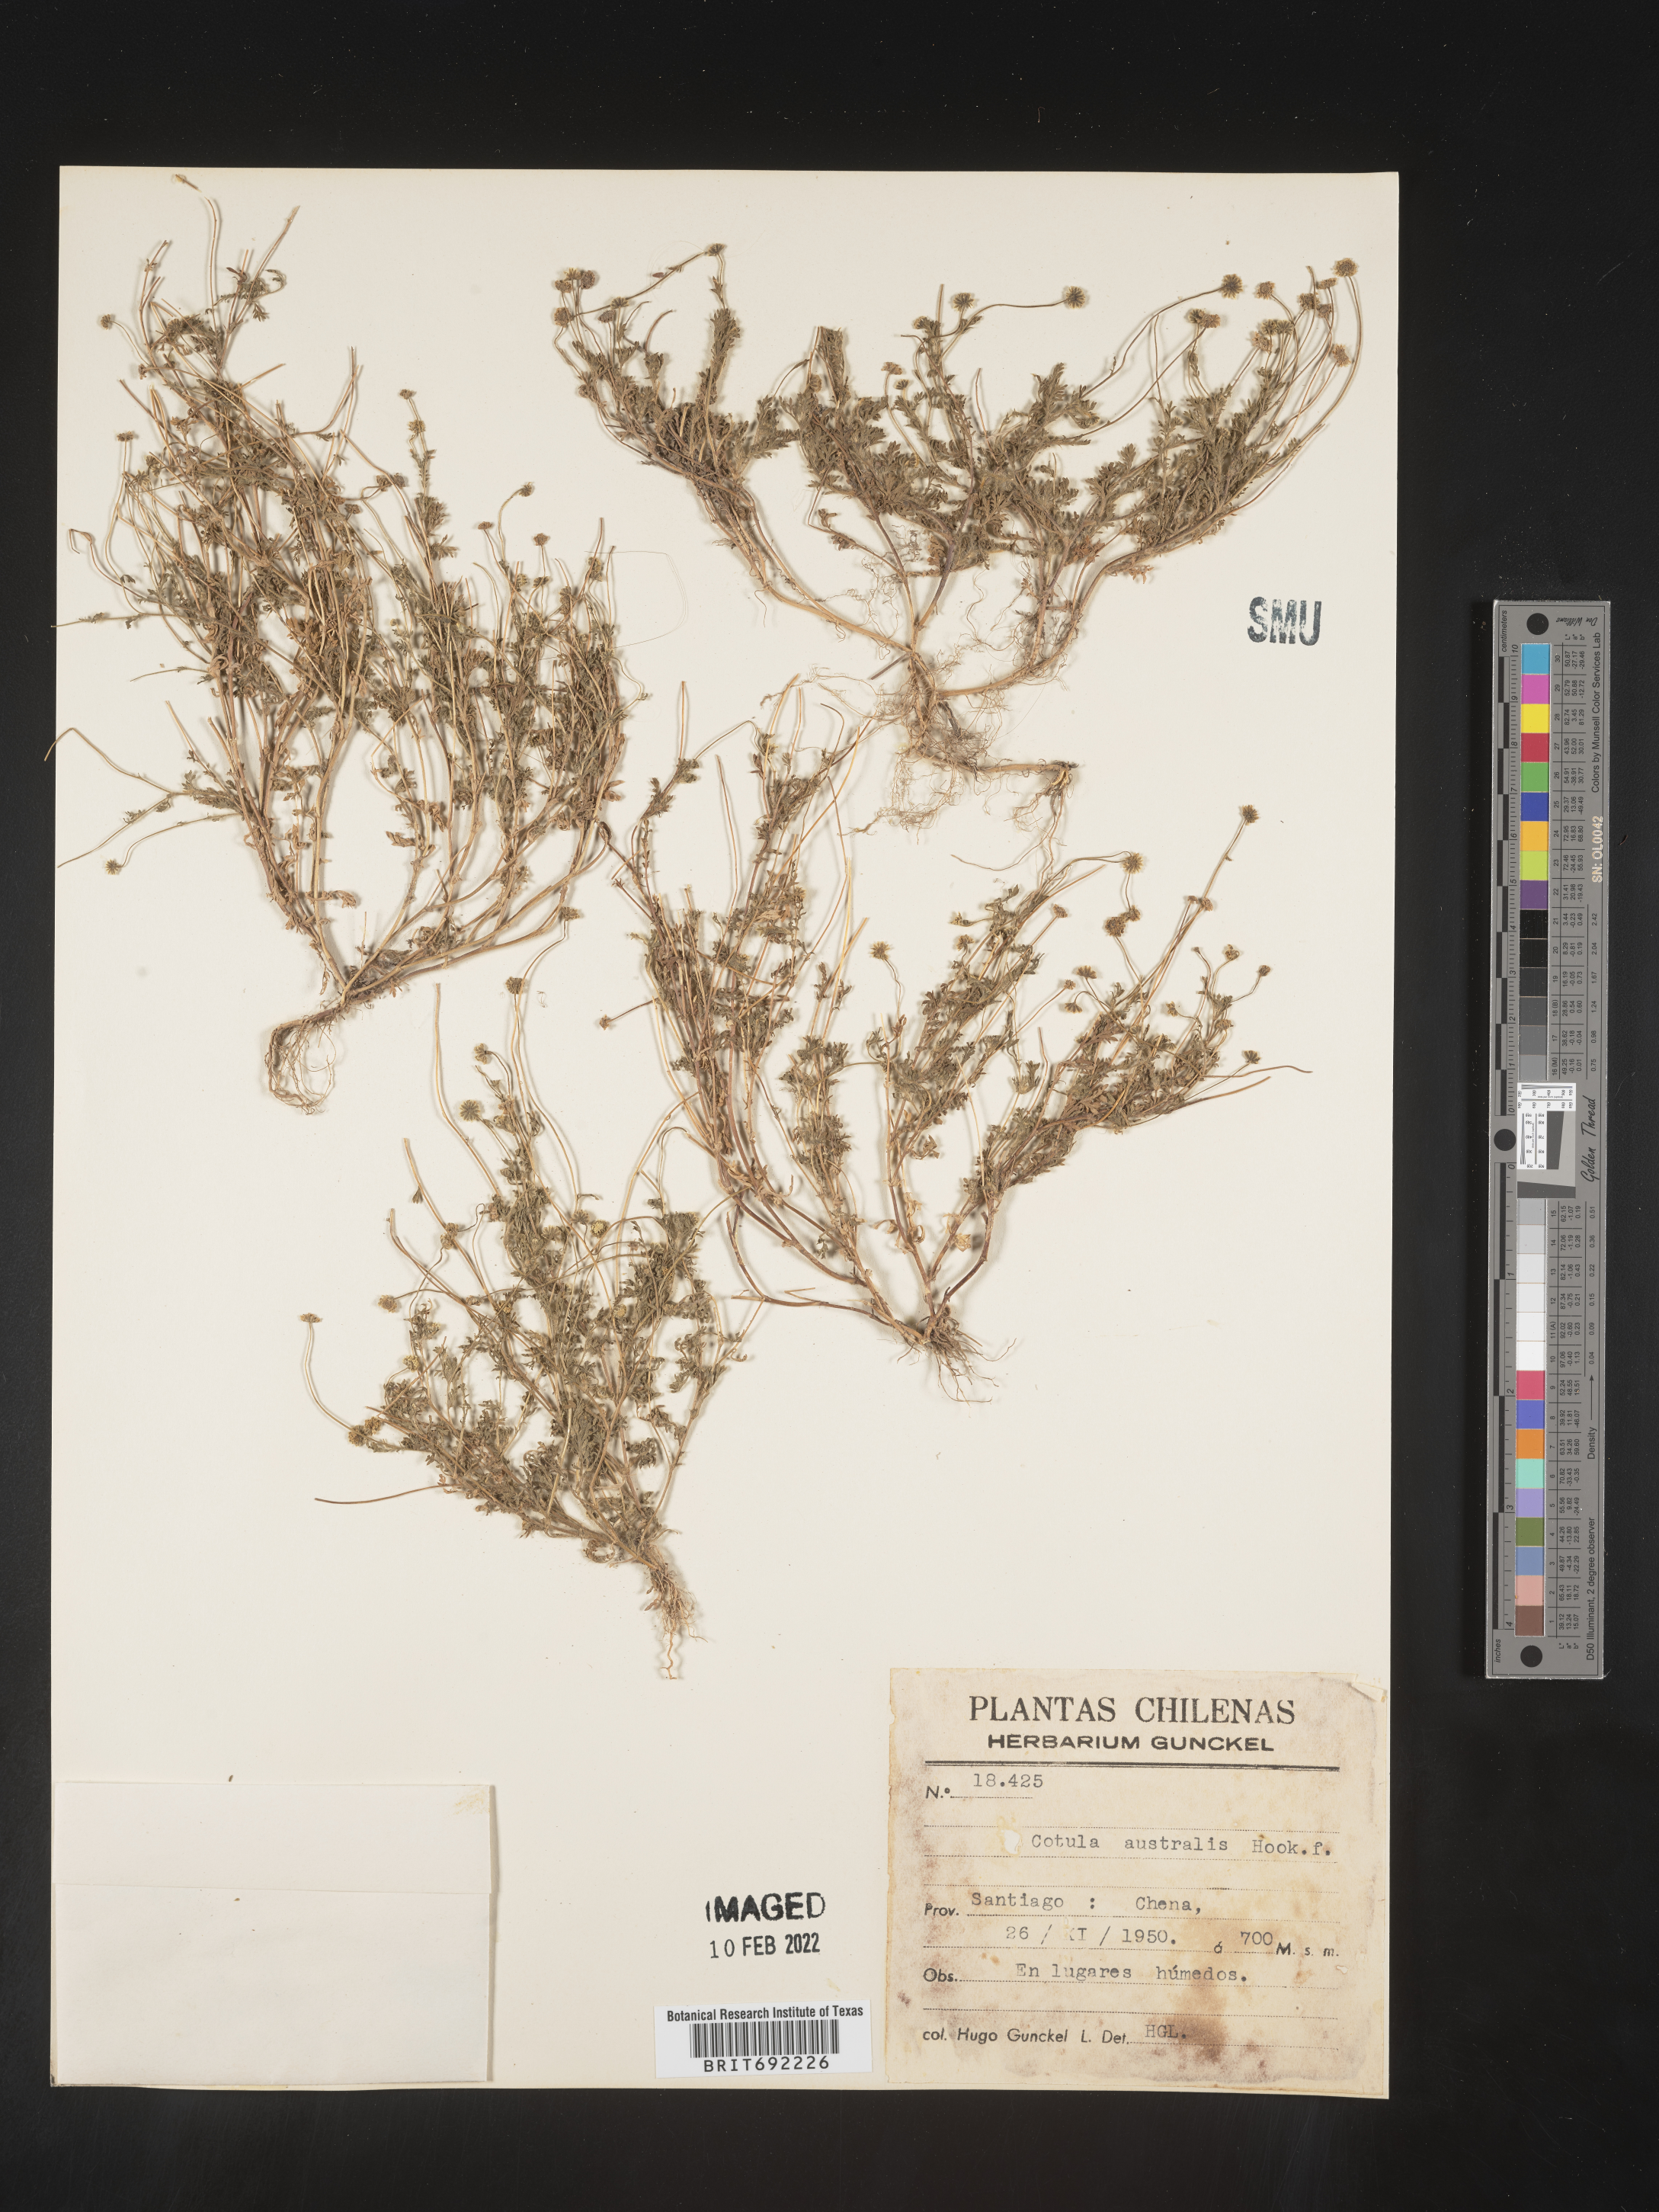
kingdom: Plantae
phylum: Tracheophyta
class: Magnoliopsida
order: Asterales
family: Asteraceae
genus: Cotula
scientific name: Cotula
